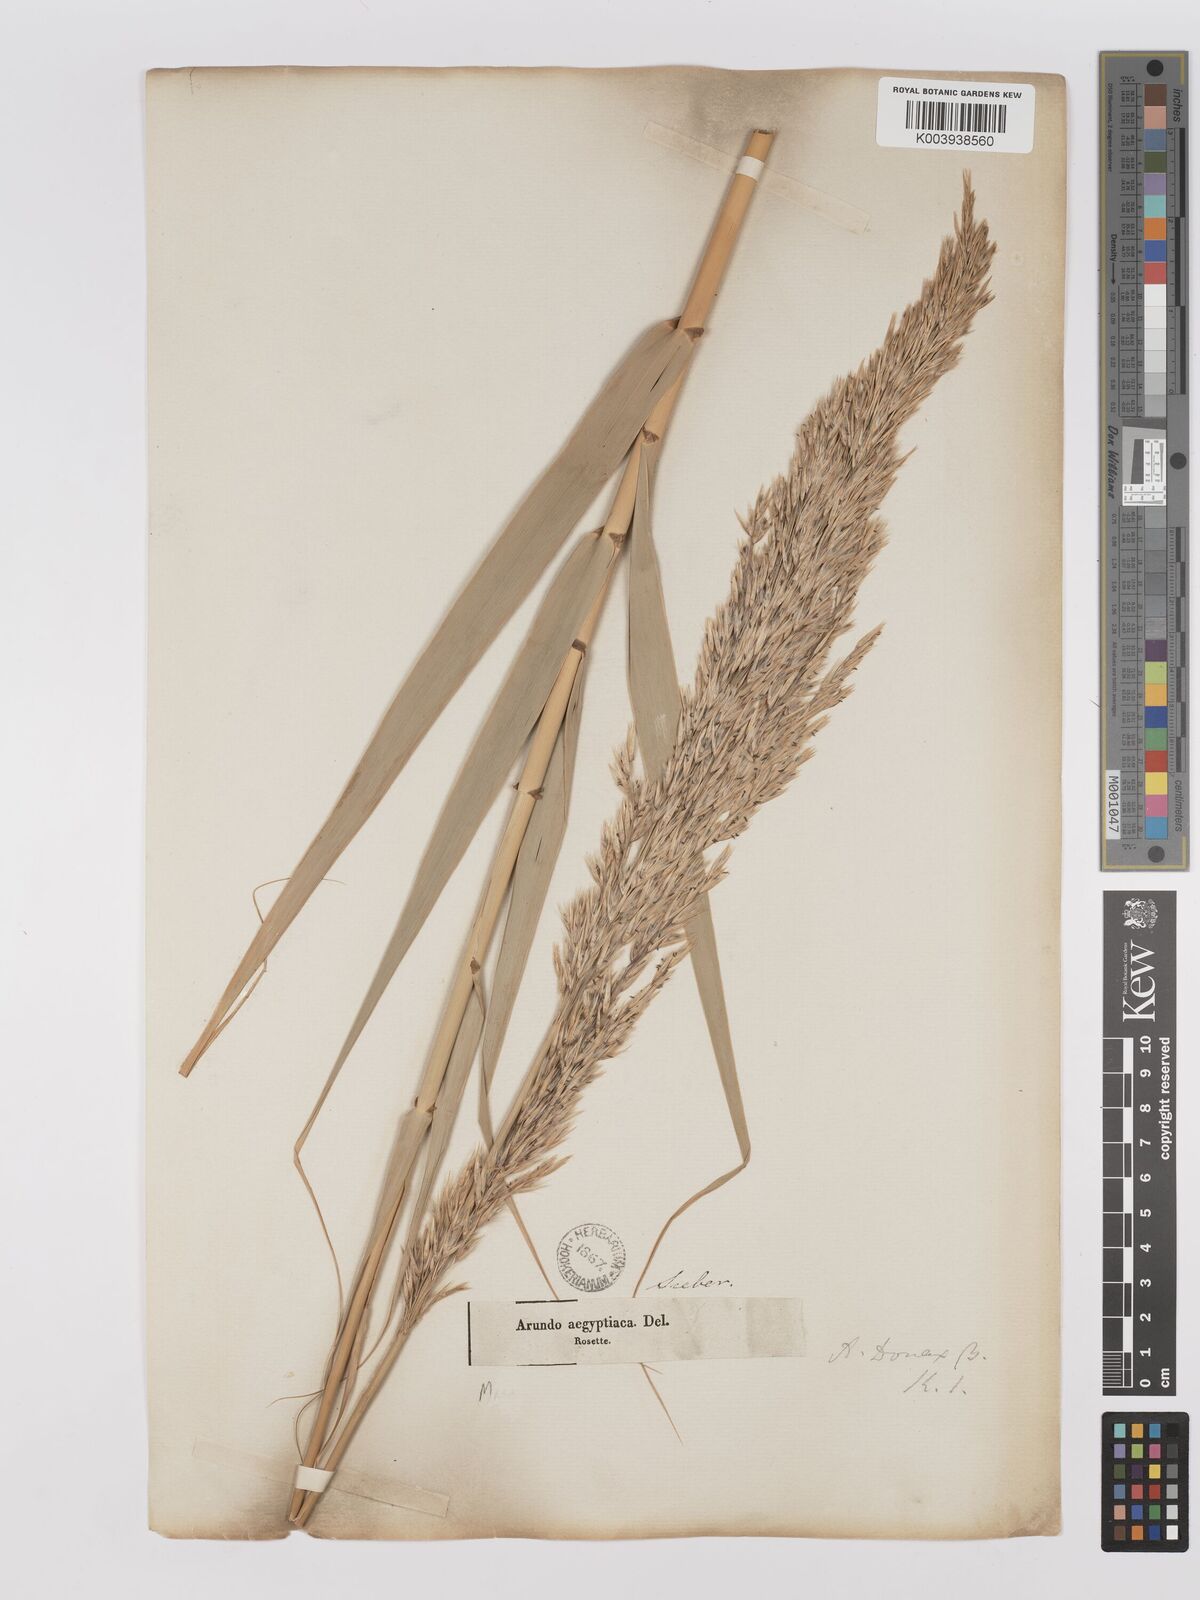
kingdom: Plantae
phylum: Tracheophyta
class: Liliopsida
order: Poales
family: Poaceae
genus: Phragmites
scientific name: Phragmites australis
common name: Common reed
